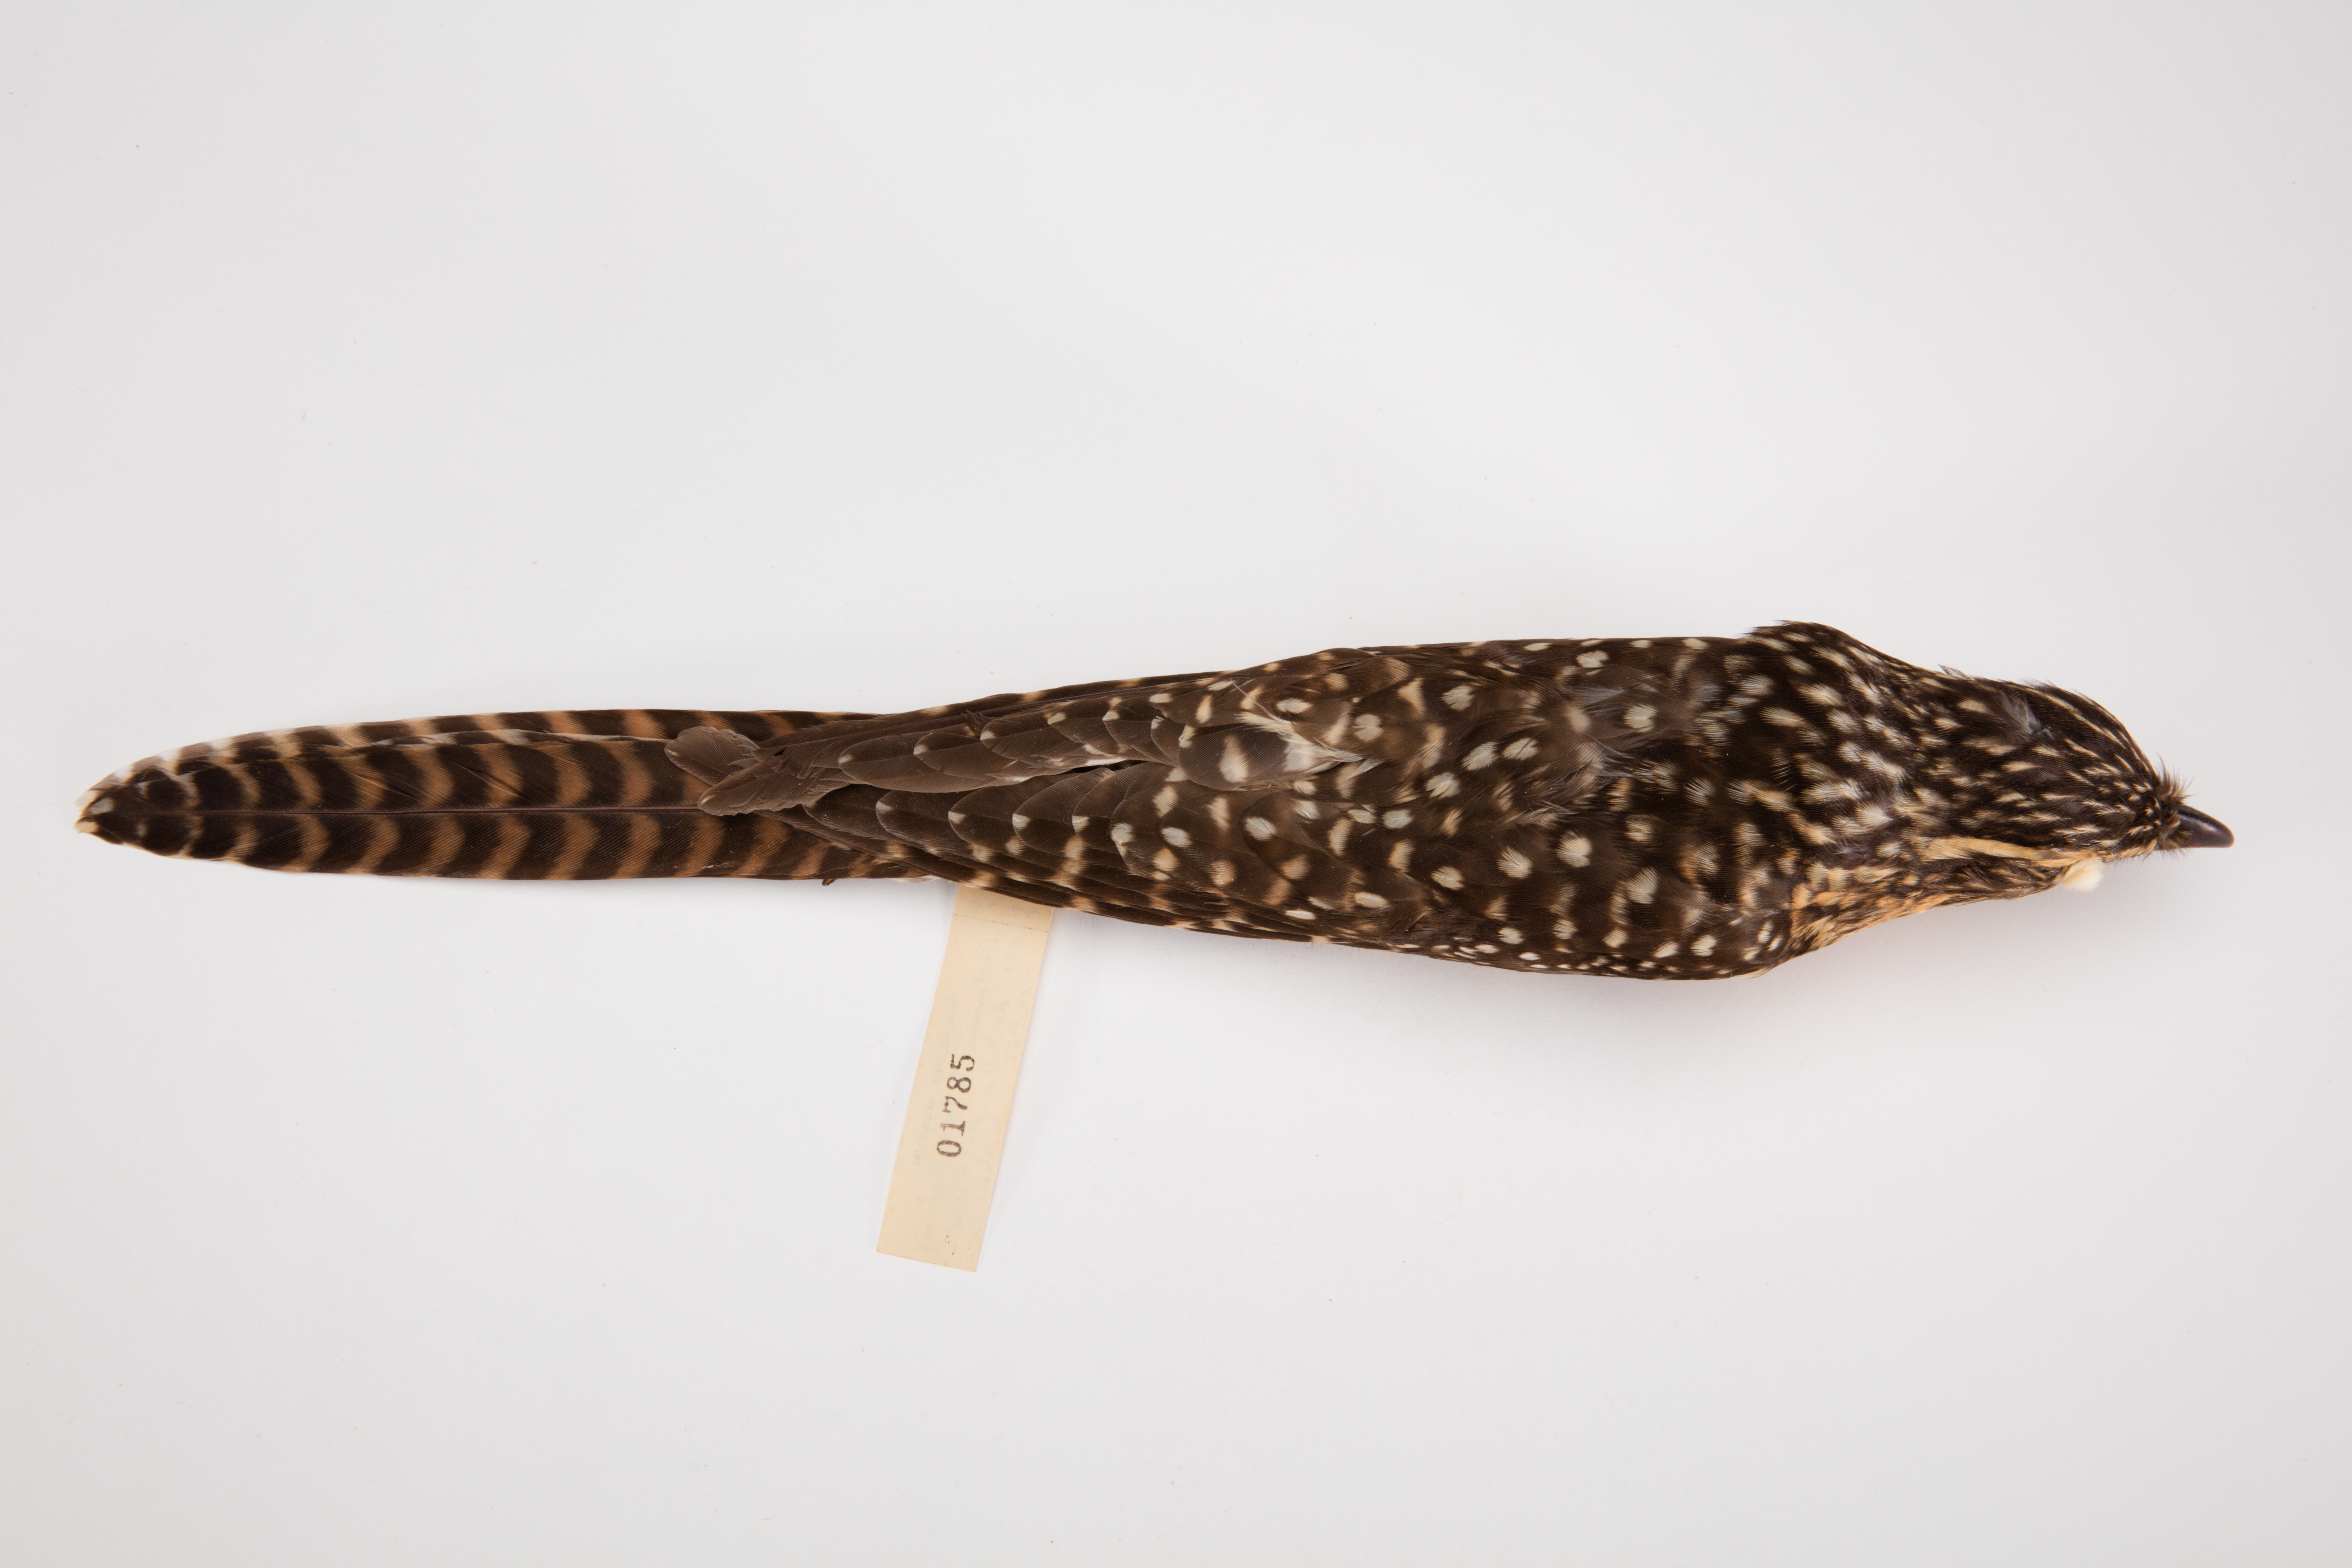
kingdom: Animalia
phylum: Chordata
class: Aves
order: Cuculiformes
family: Cuculidae
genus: Urodynamis
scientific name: Urodynamis taitensis
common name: Long-tailed koel
